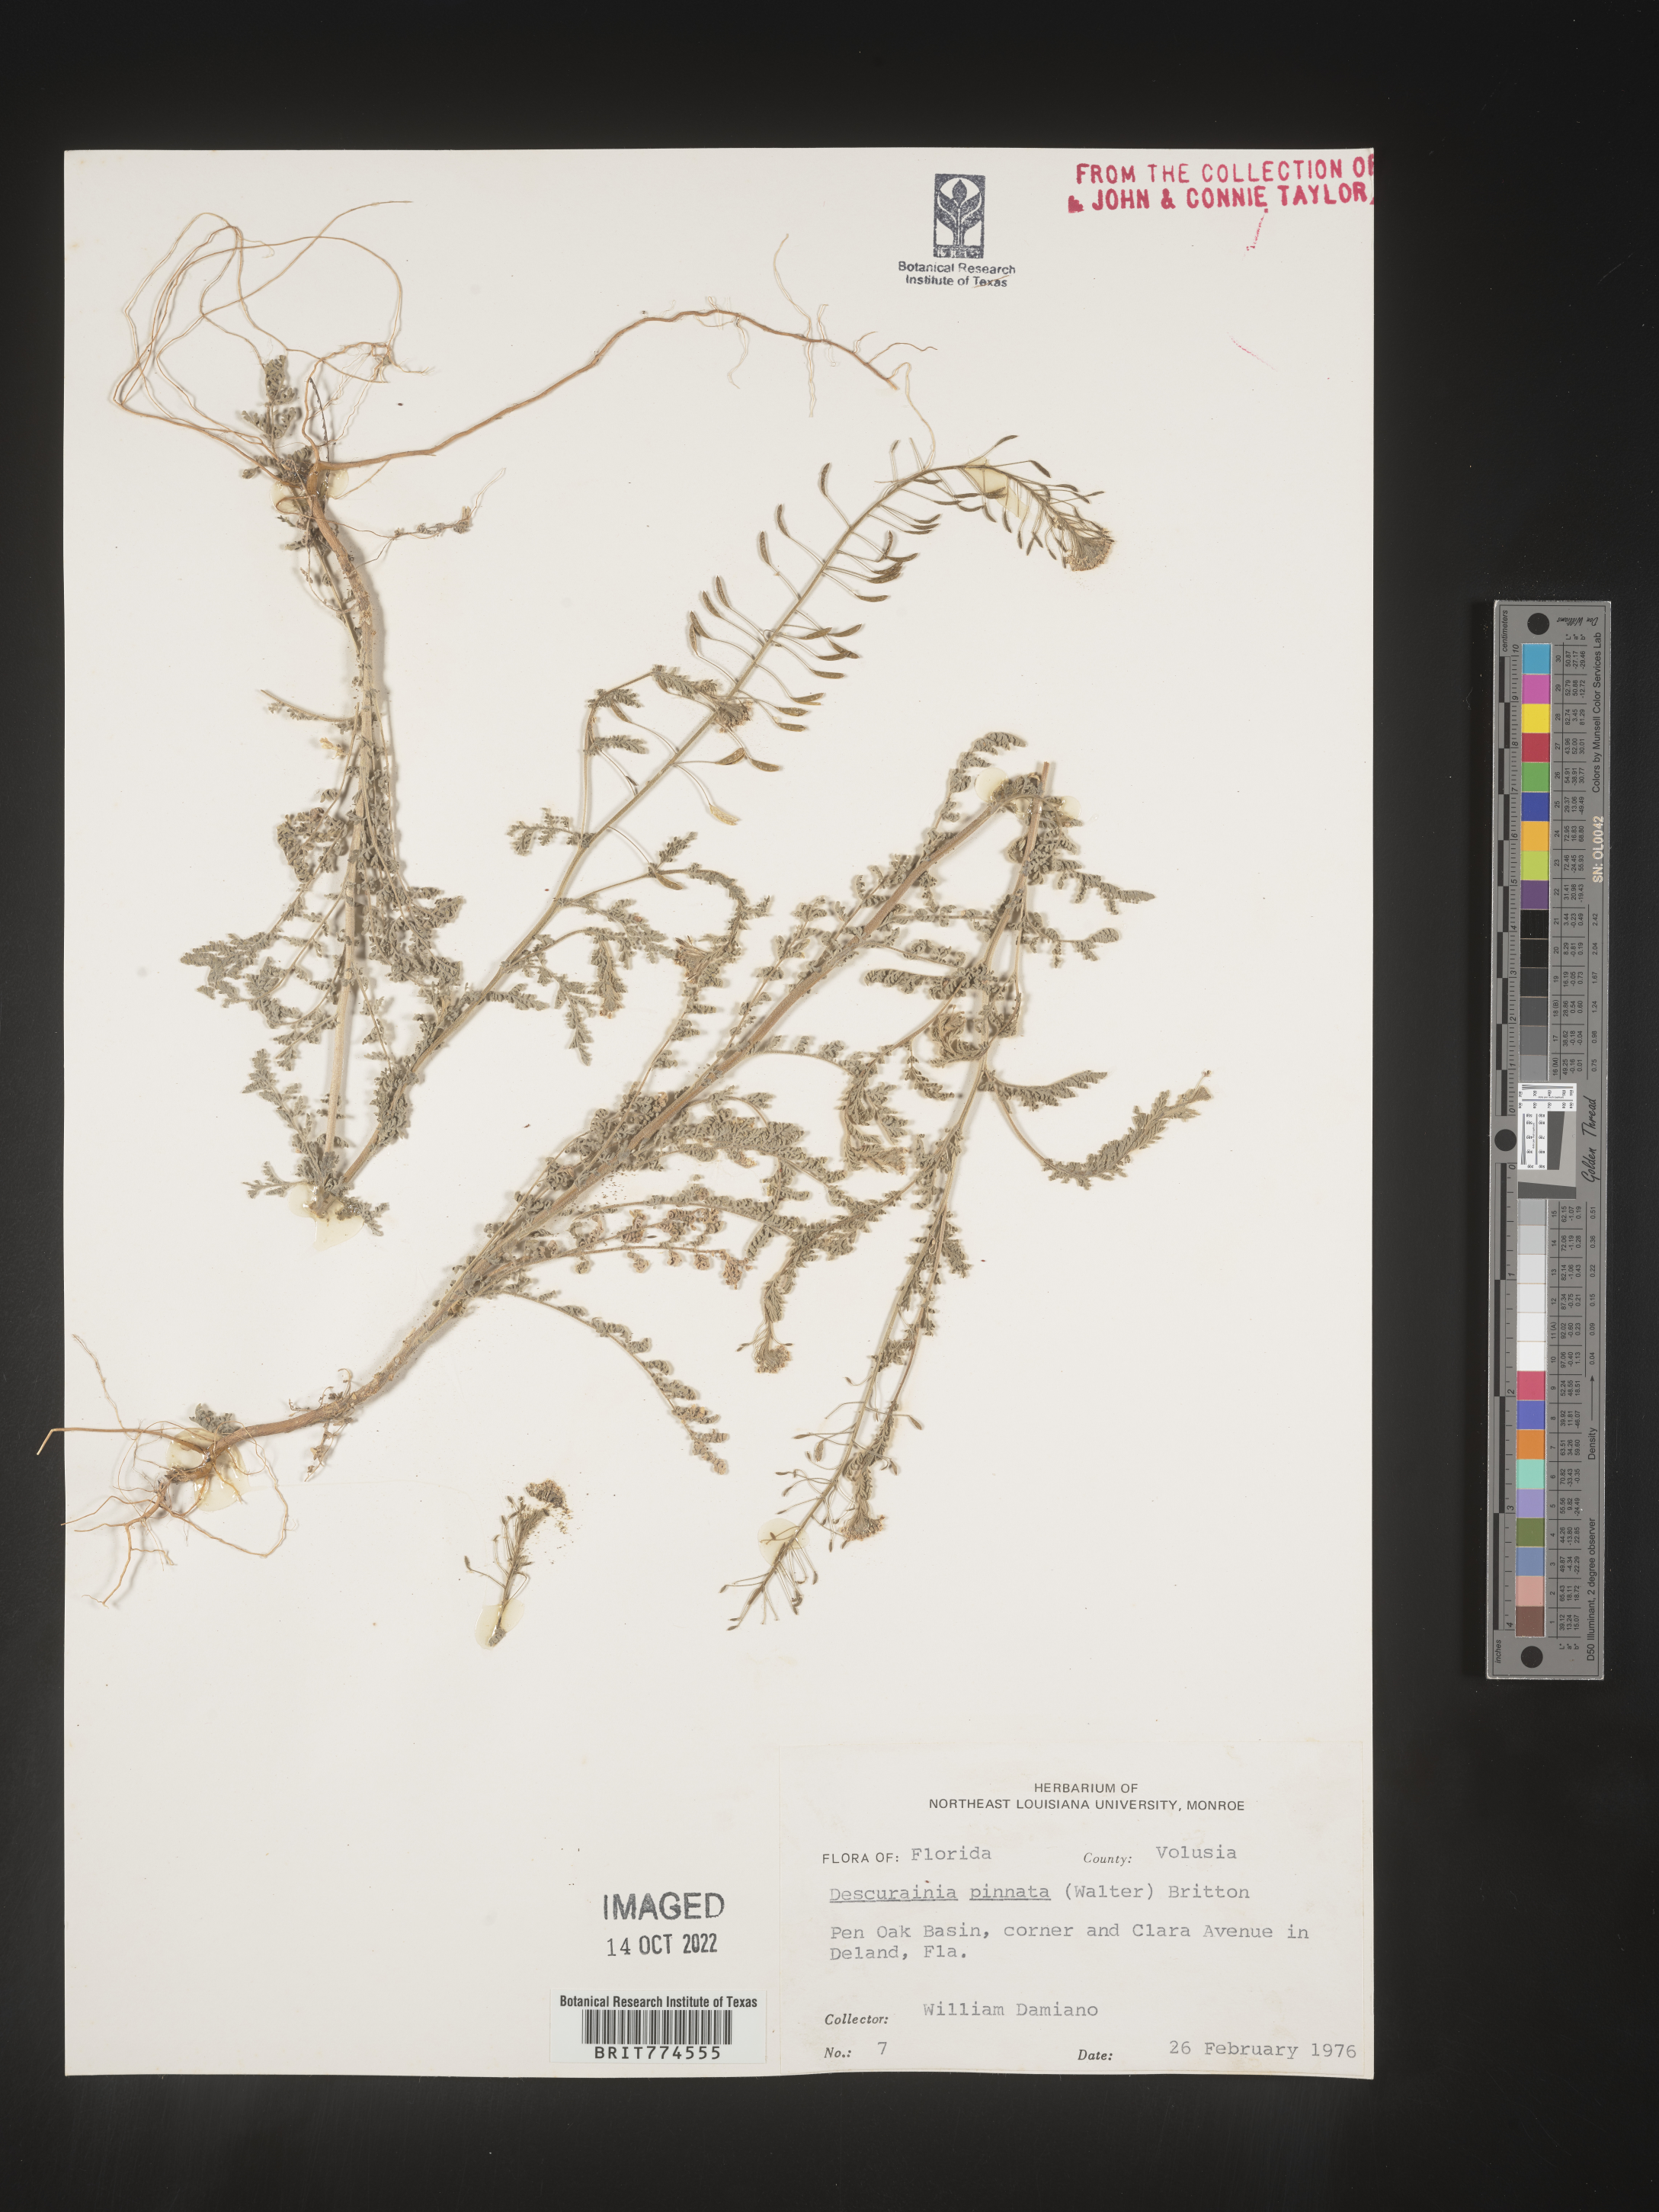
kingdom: Plantae
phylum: Tracheophyta
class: Magnoliopsida
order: Brassicales
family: Brassicaceae
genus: Descurainia
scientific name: Descurainia pinnata
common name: Western tansy mustard
